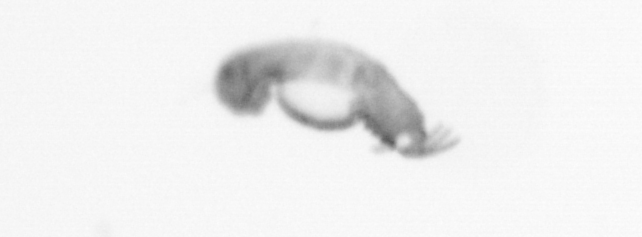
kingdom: Animalia
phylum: Annelida
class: Polychaeta
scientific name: Polychaeta
